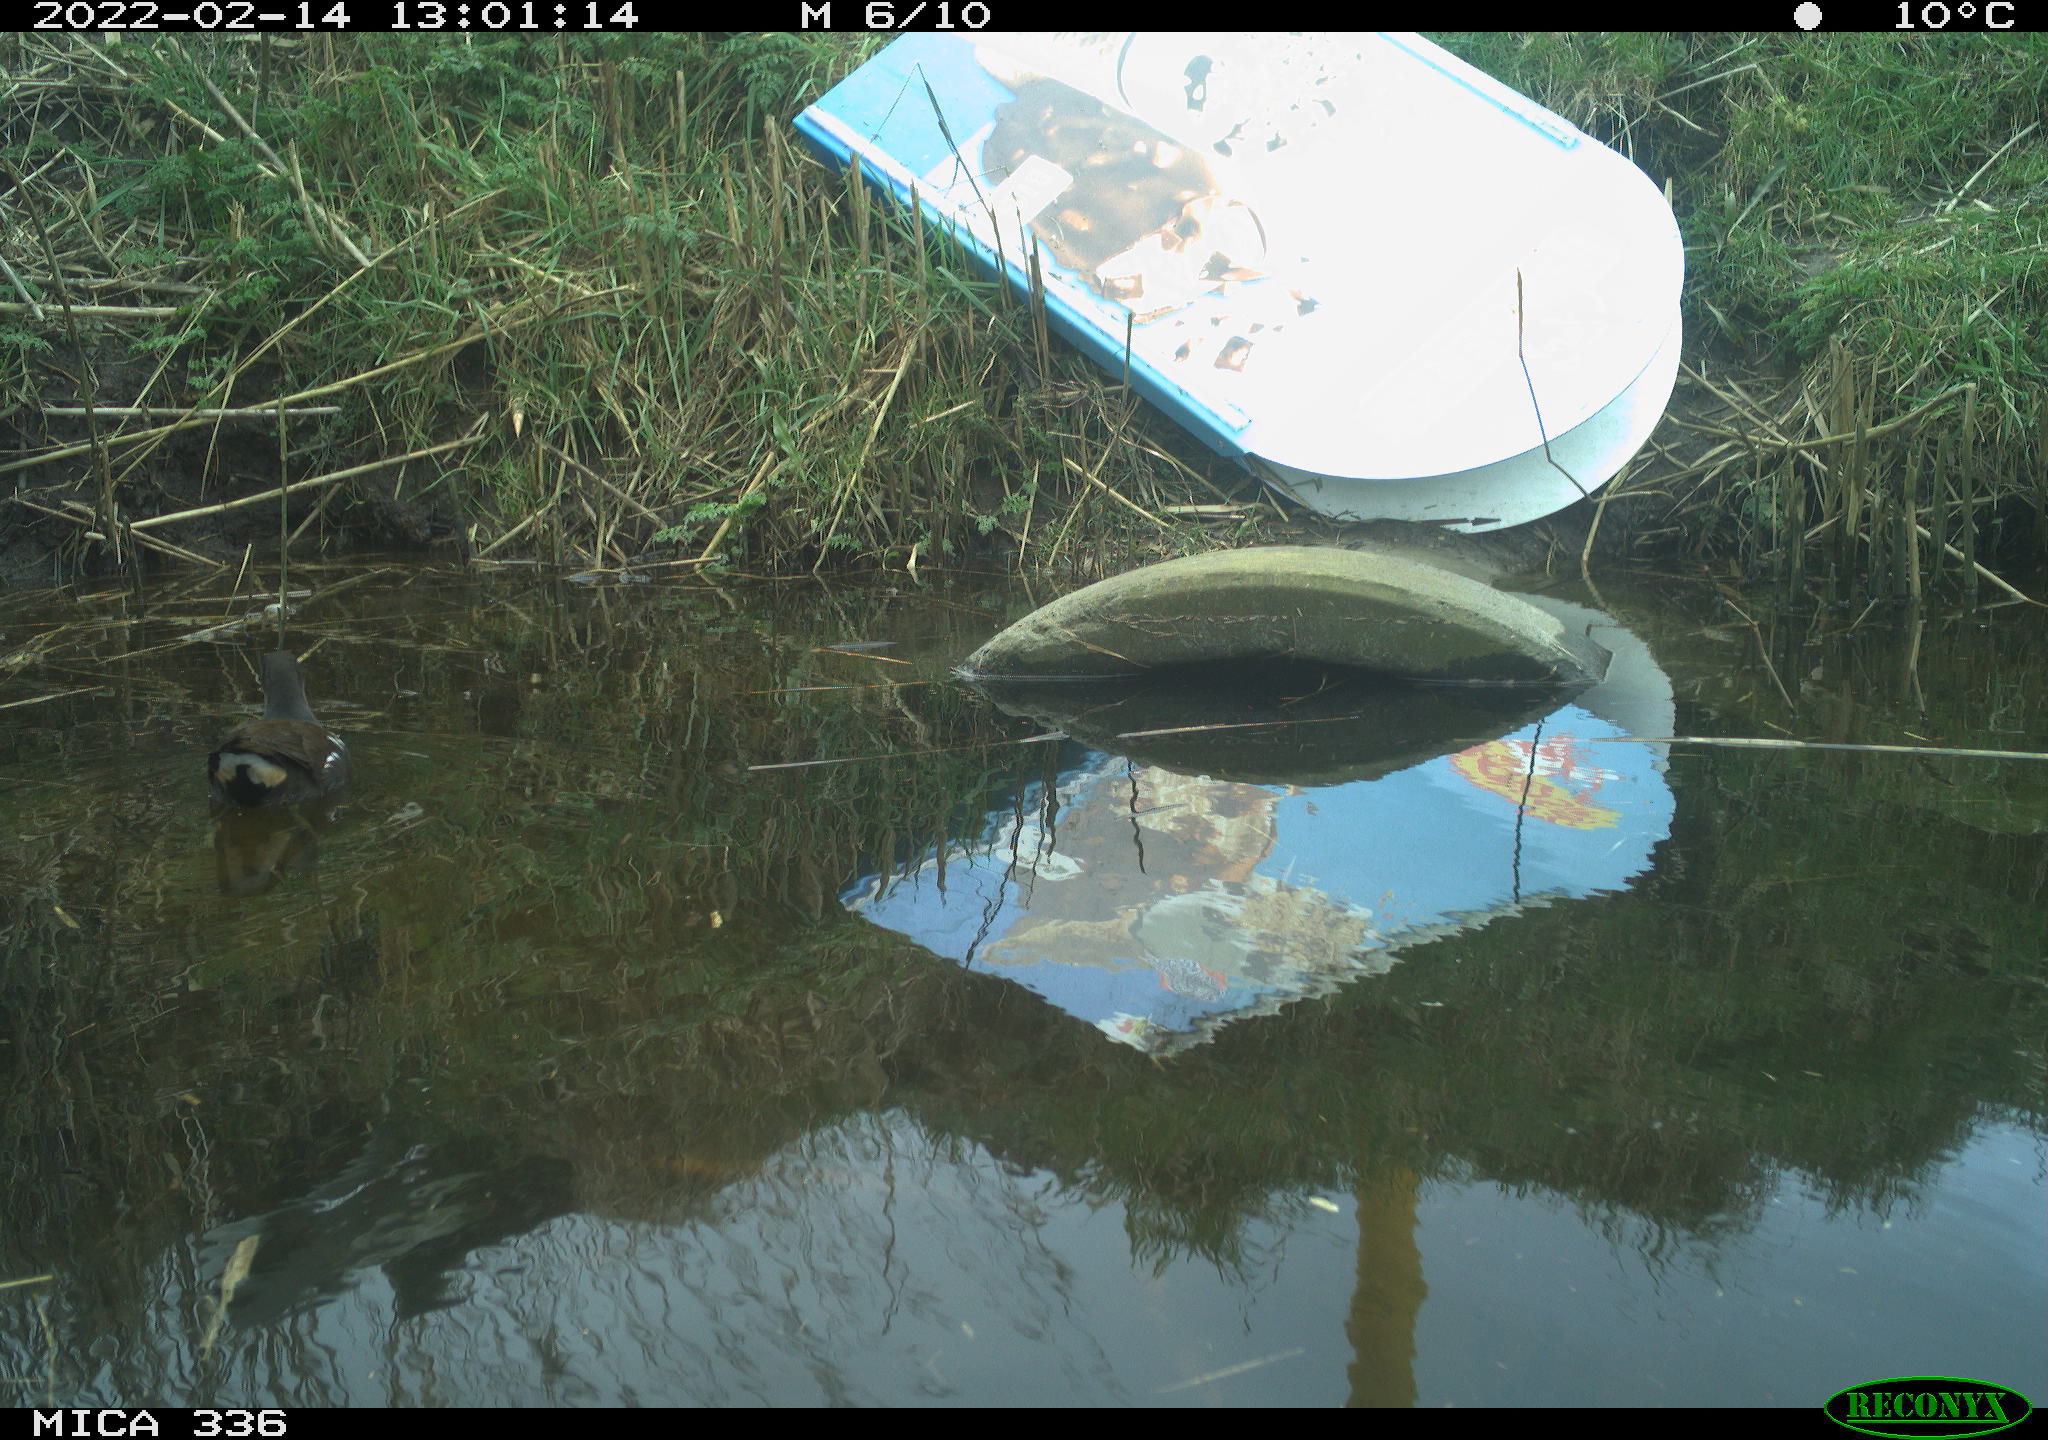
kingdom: Animalia
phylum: Chordata
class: Aves
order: Gruiformes
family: Rallidae
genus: Gallinula
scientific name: Gallinula chloropus
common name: Common moorhen
